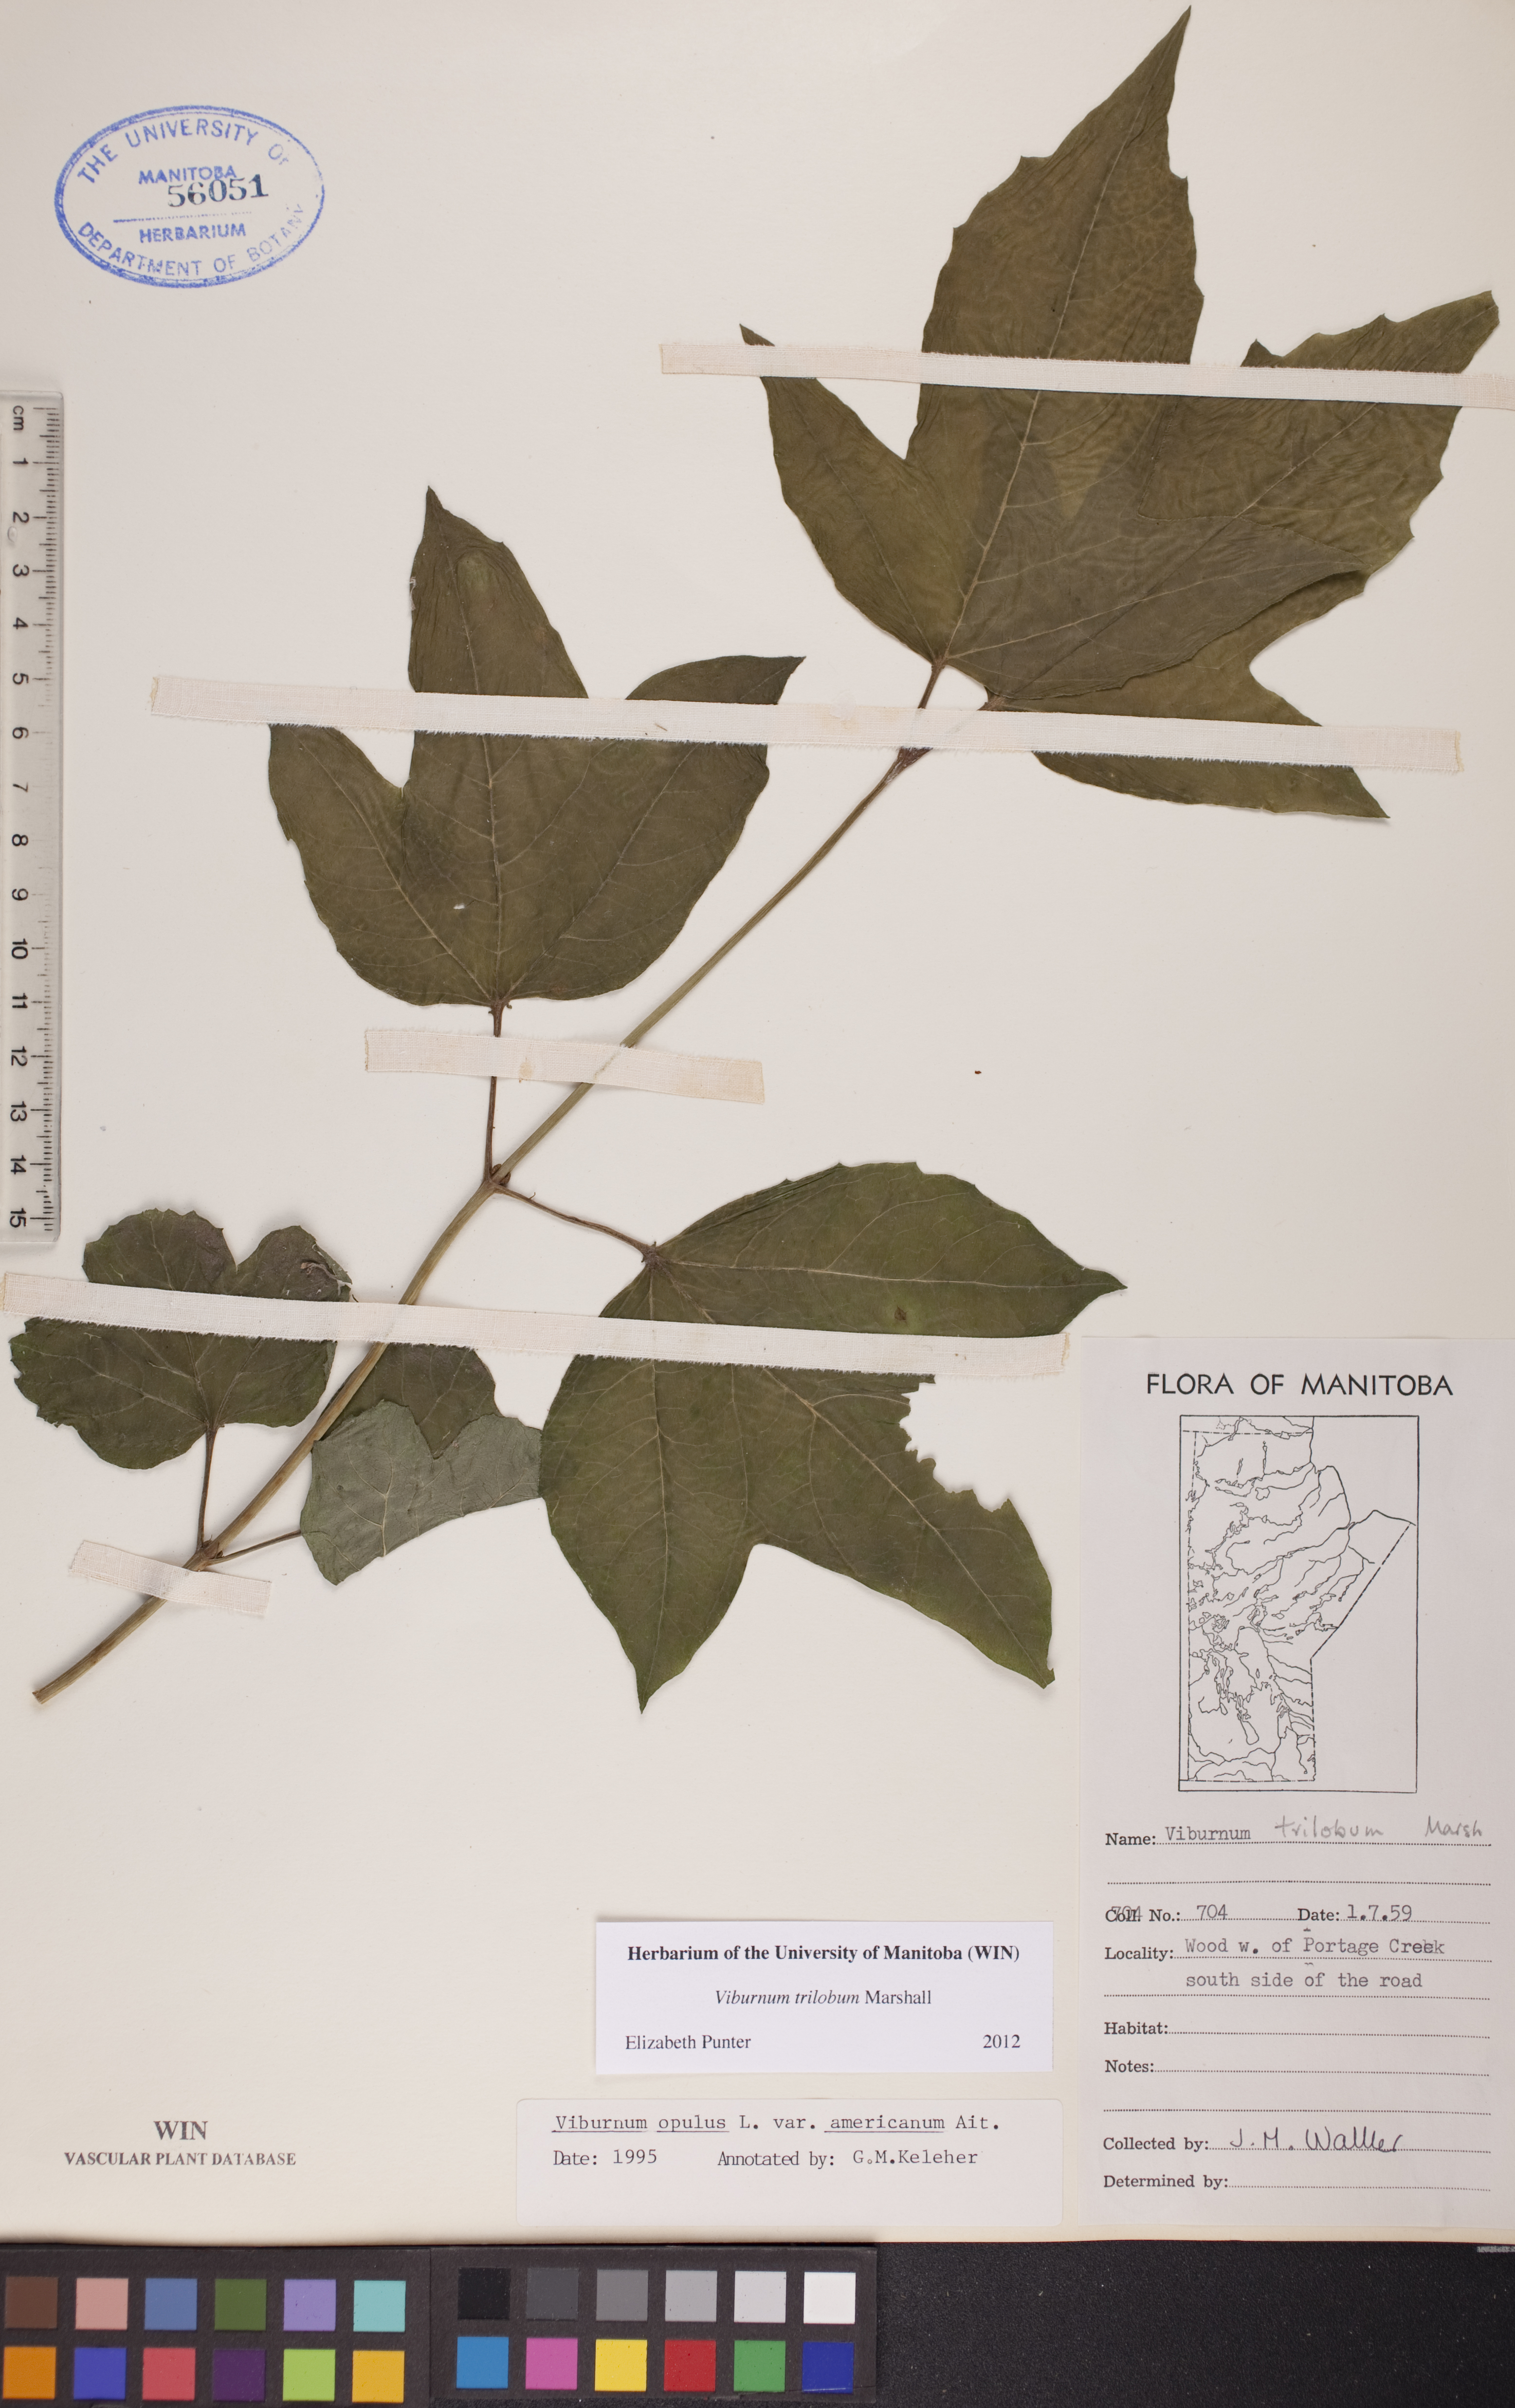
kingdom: Plantae
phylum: Tracheophyta
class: Magnoliopsida
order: Dipsacales
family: Viburnaceae
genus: Viburnum
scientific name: Viburnum trilobum
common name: American cranberrybush
